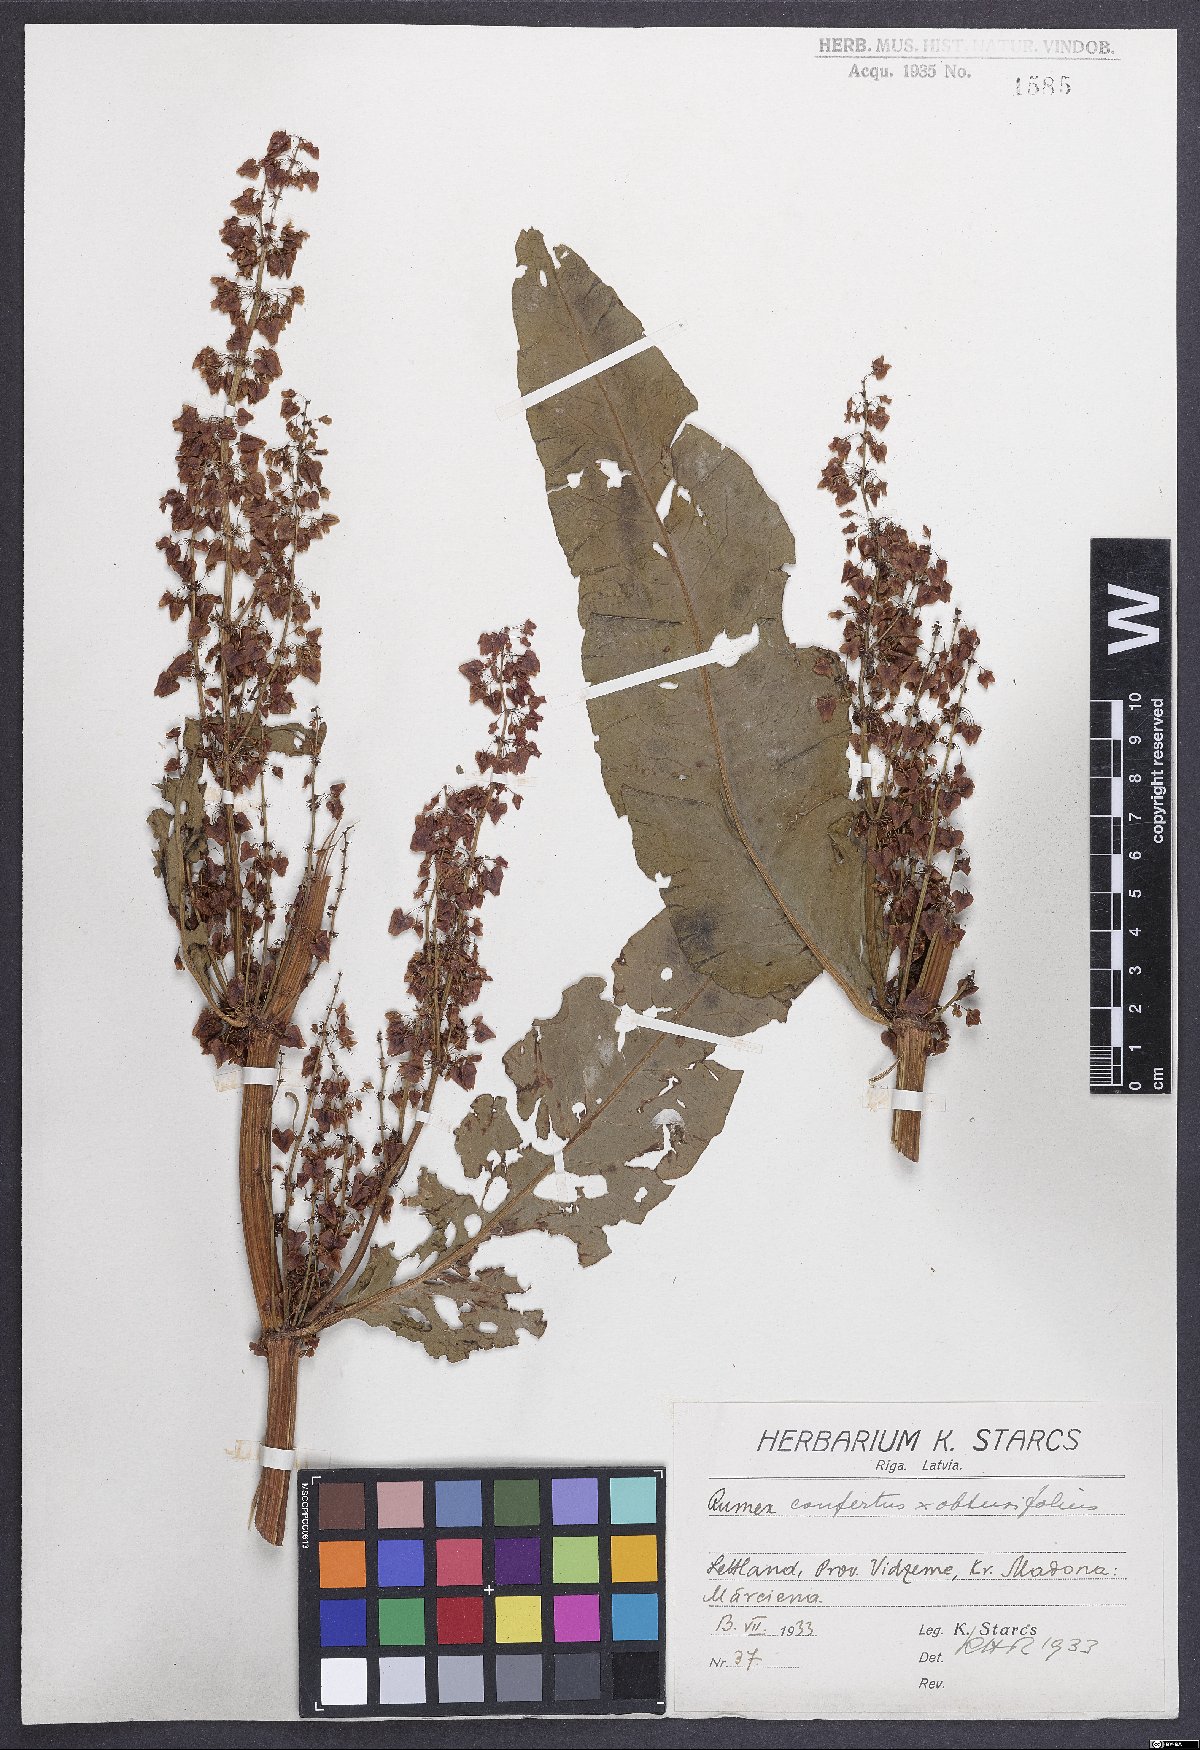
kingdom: Plantae
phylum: Tracheophyta
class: Magnoliopsida
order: Caryophyllales
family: Polygonaceae
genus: Rumex
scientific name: Rumex borbasii
